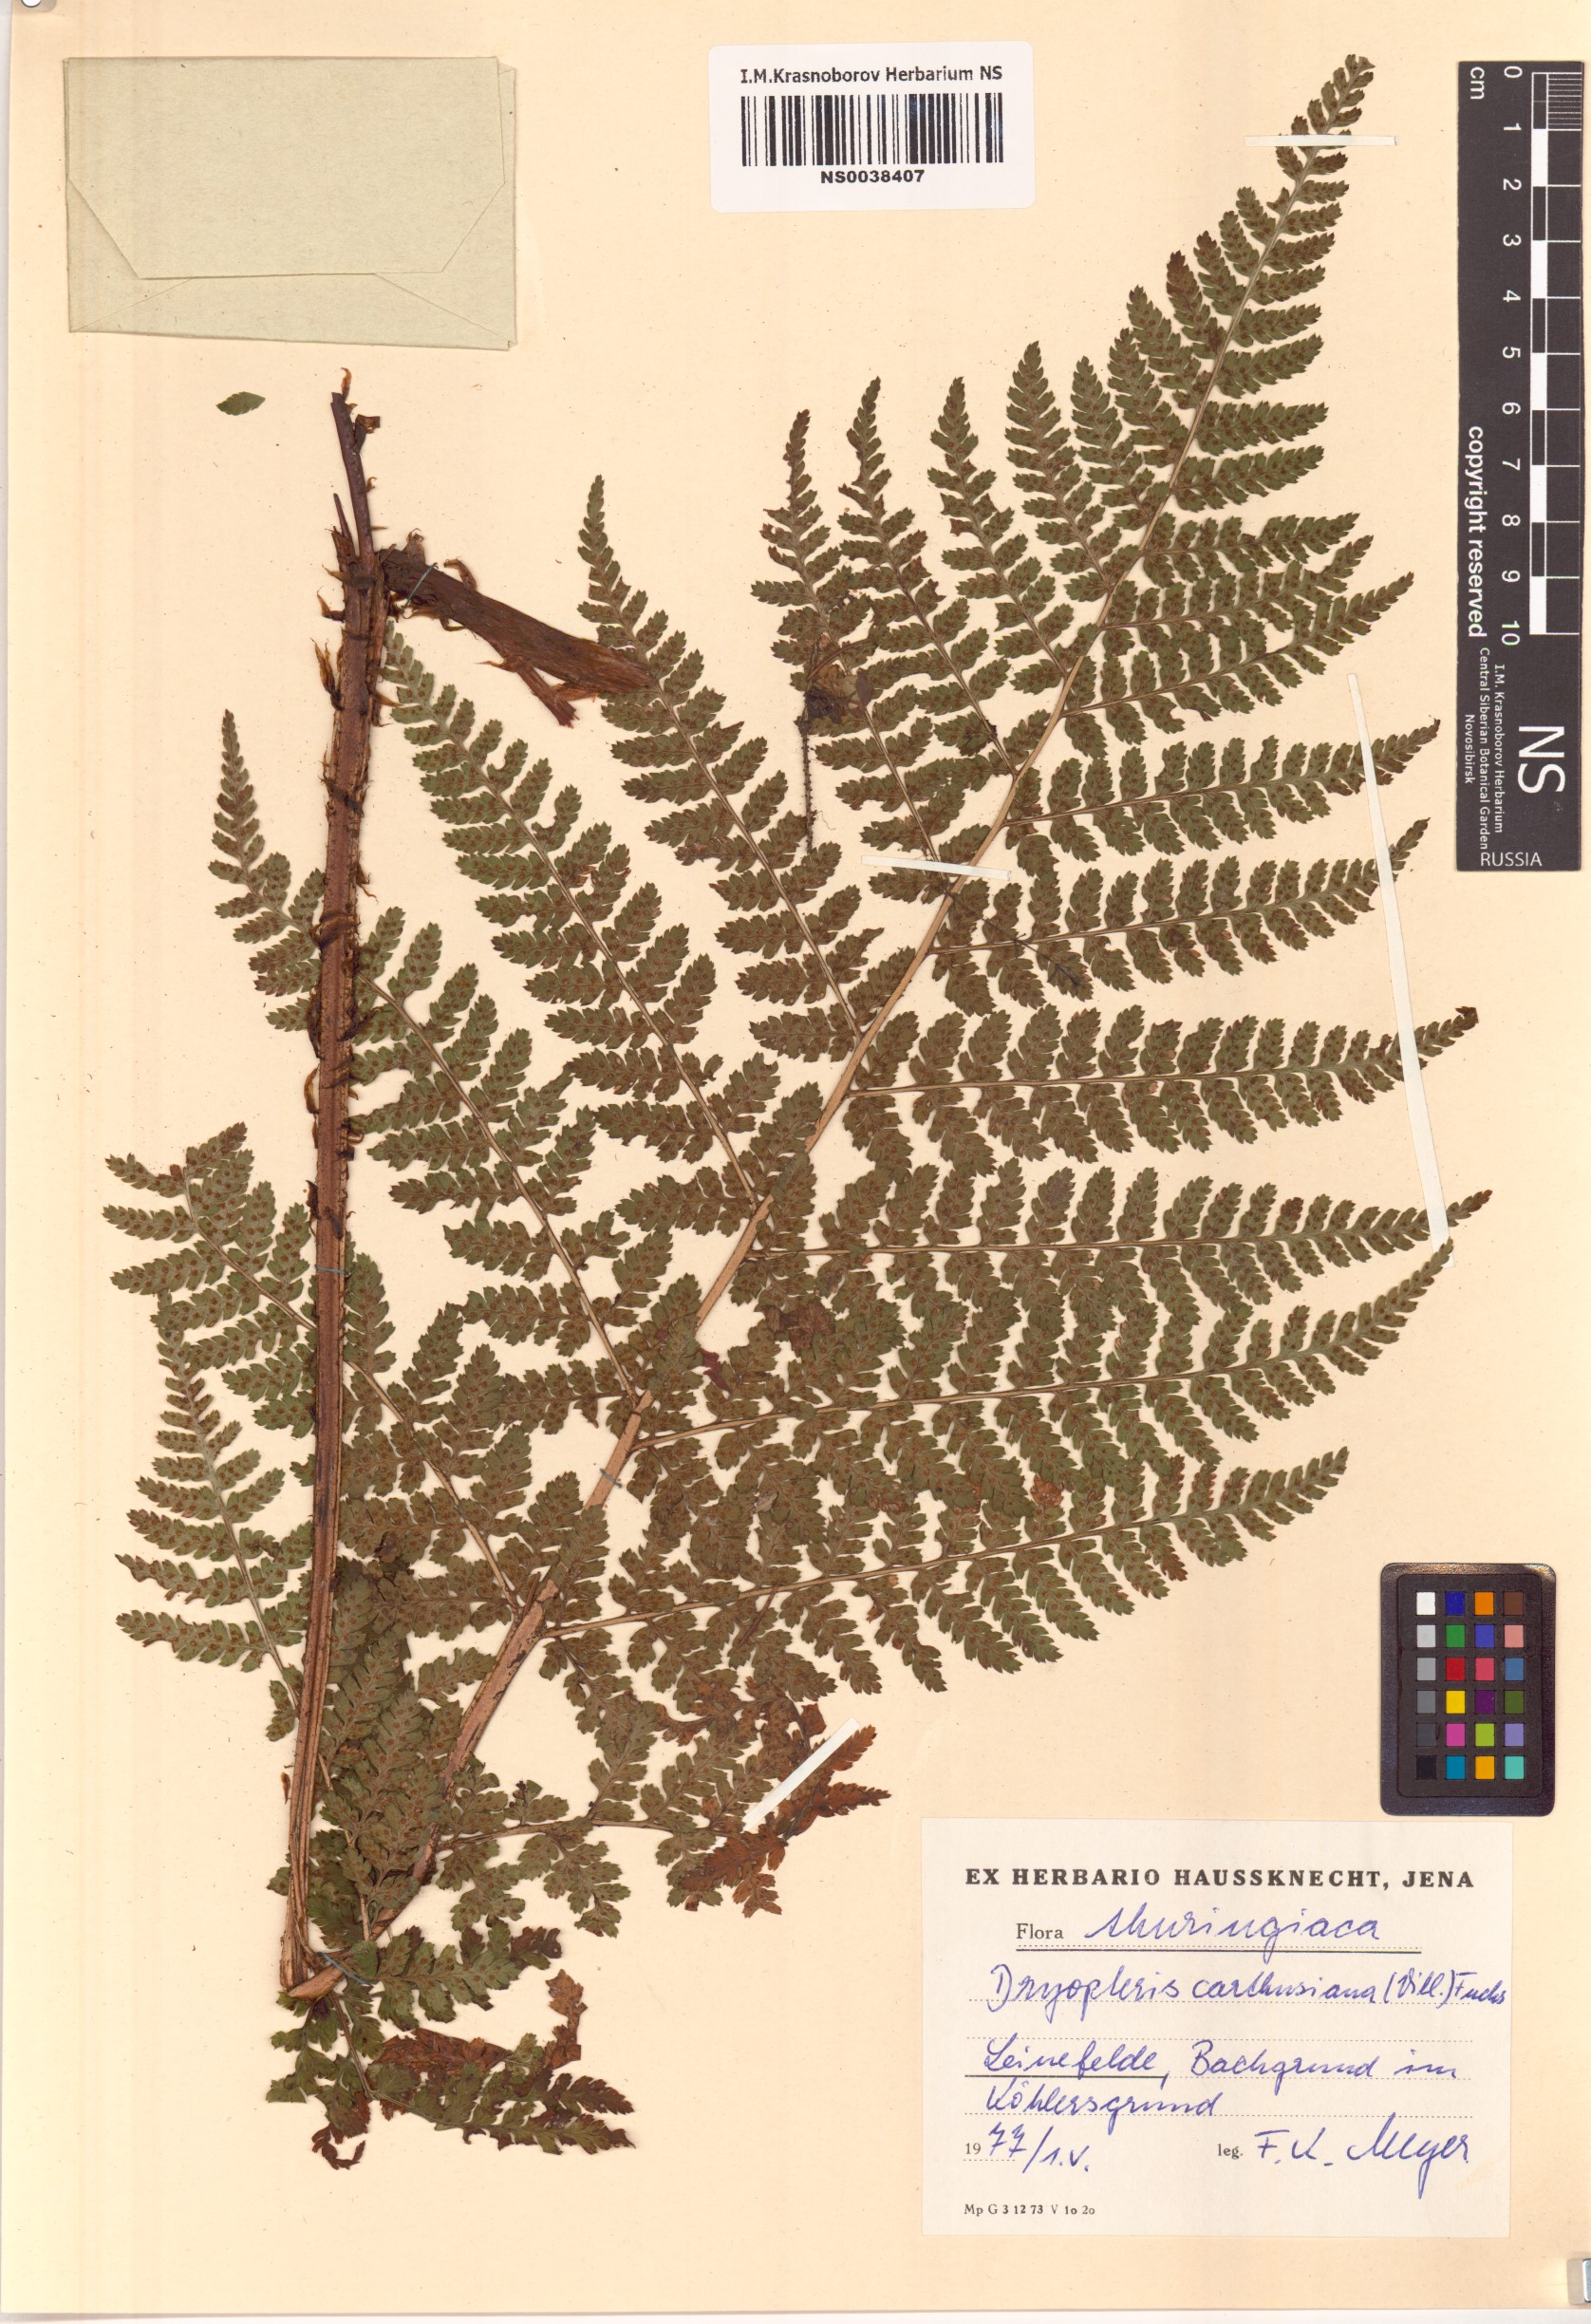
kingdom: Plantae
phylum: Tracheophyta
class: Polypodiopsida
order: Polypodiales
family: Dryopteridaceae
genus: Dryopteris
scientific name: Dryopteris carthusiana
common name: Narrow buckler-fern
